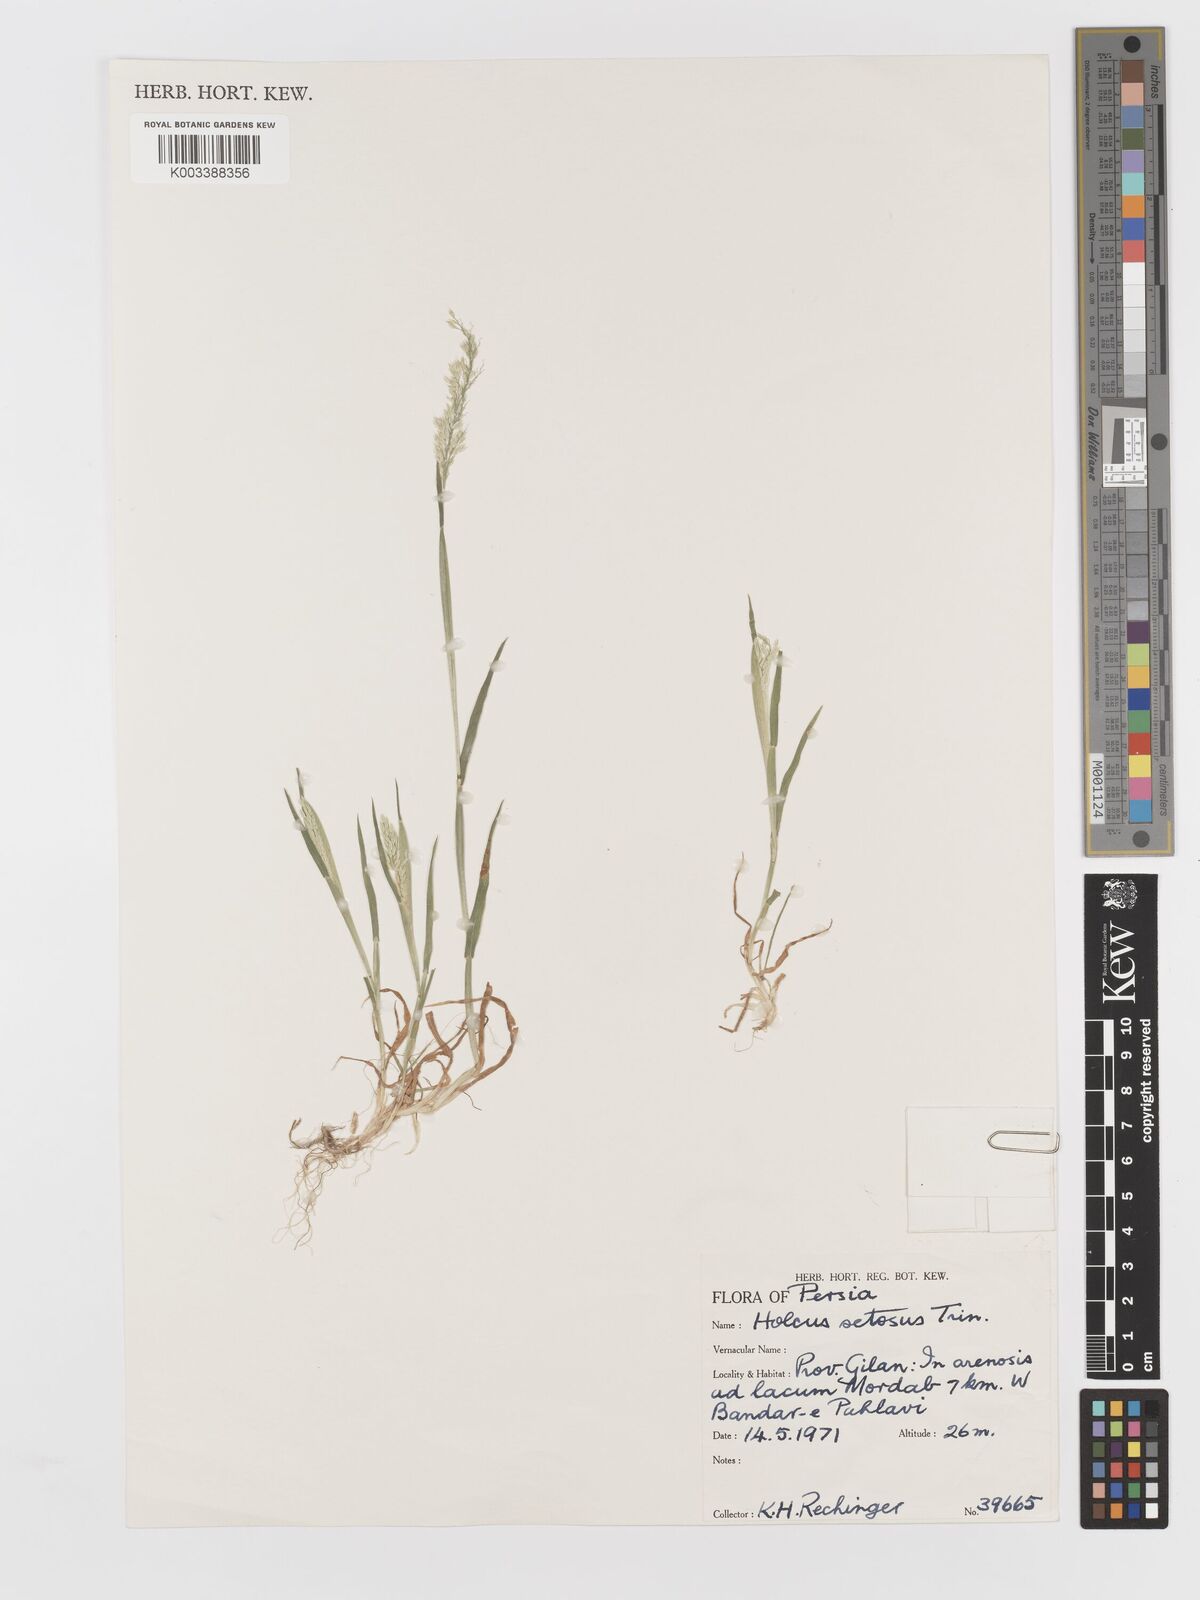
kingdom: Plantae
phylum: Tracheophyta
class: Liliopsida
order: Poales
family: Poaceae
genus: Holcus
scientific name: Holcus annuus
